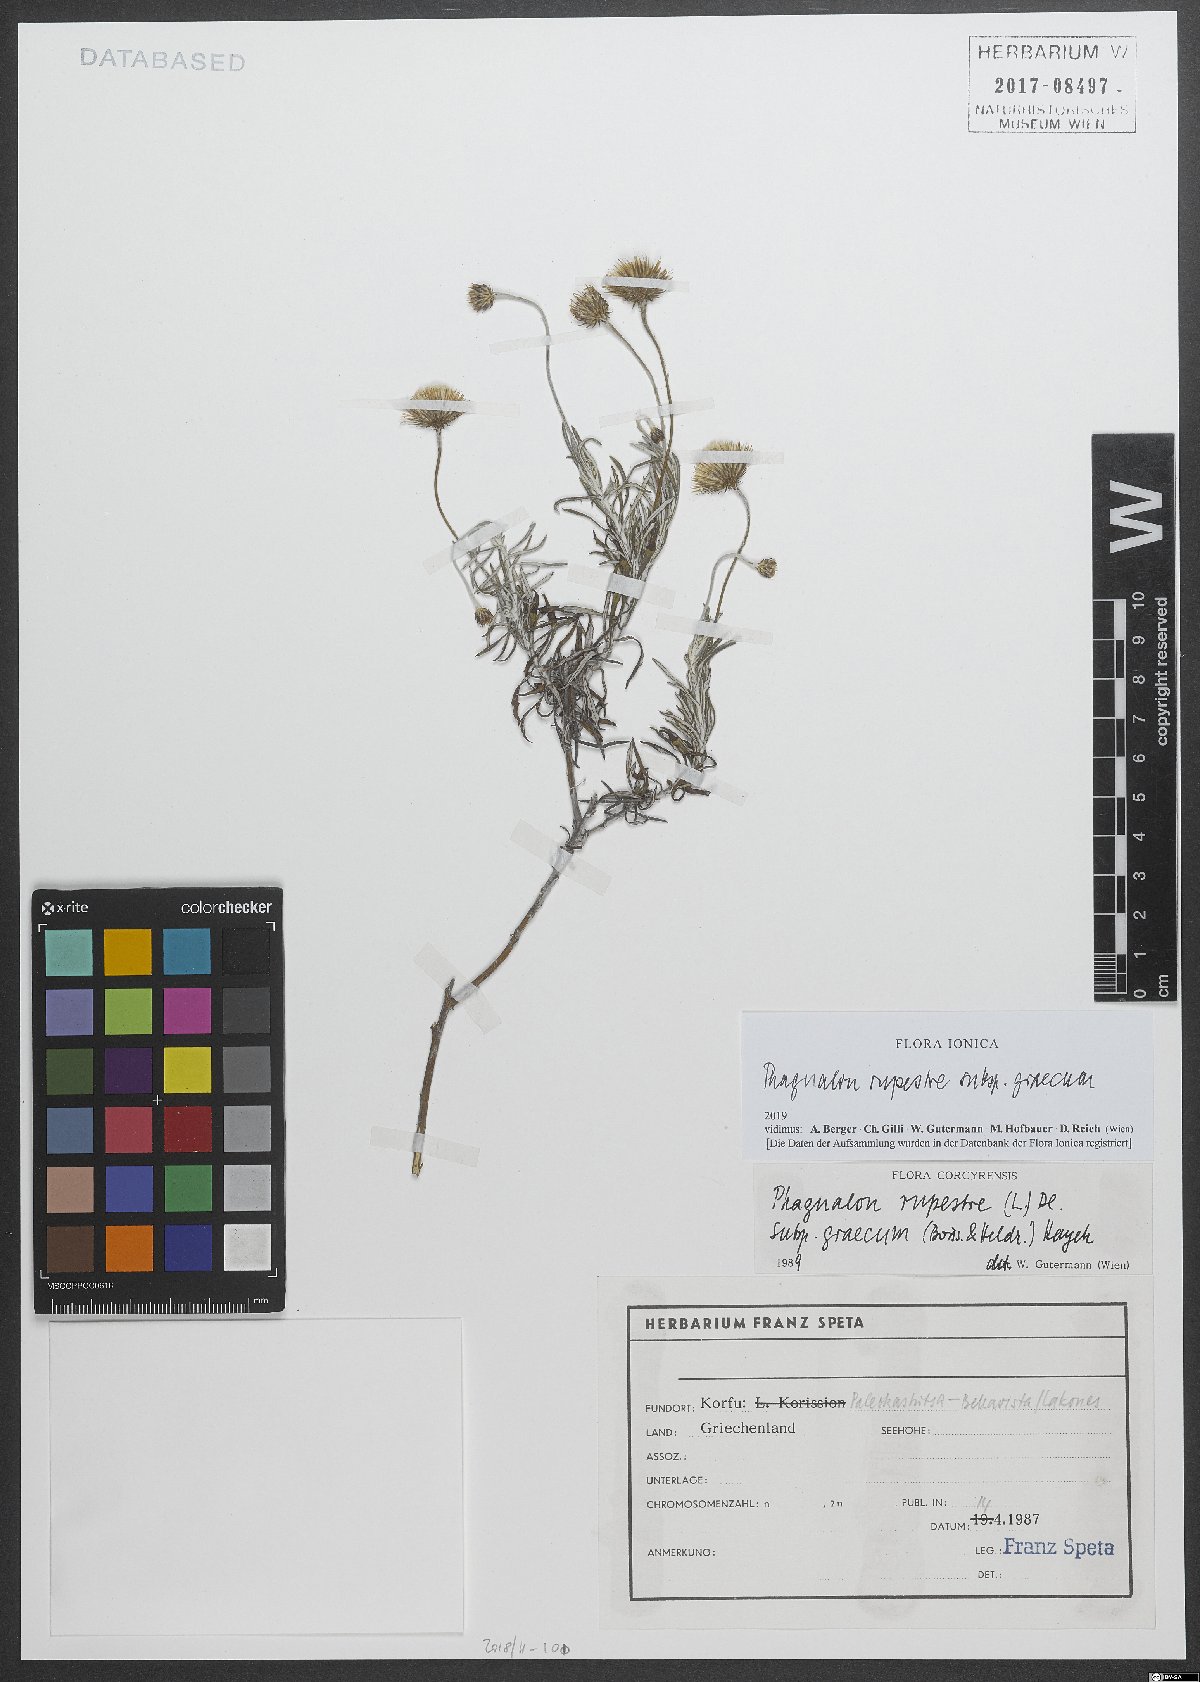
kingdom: Plantae
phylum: Tracheophyta
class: Magnoliopsida
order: Asterales
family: Asteraceae
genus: Phagnalon
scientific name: Phagnalon graecum
